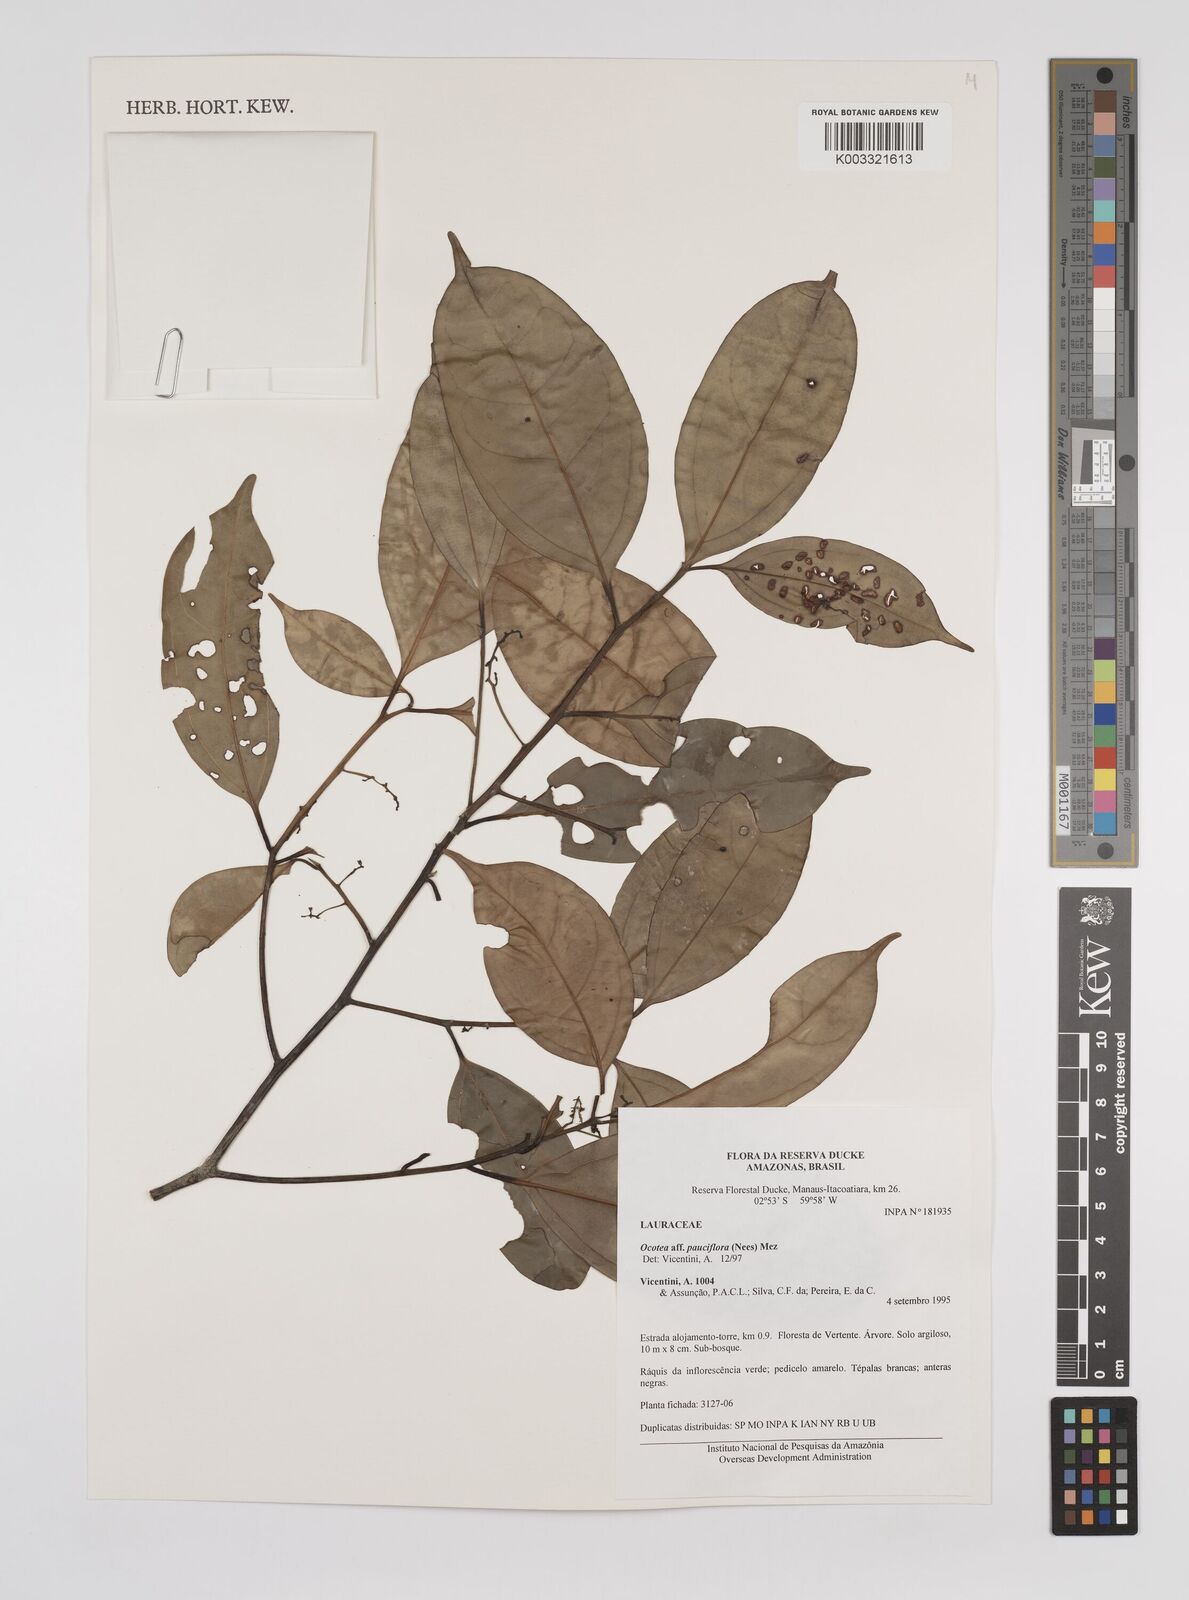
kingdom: Plantae
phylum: Tracheophyta
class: Magnoliopsida
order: Laurales
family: Lauraceae
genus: Ocotea
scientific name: Ocotea pauciflora
